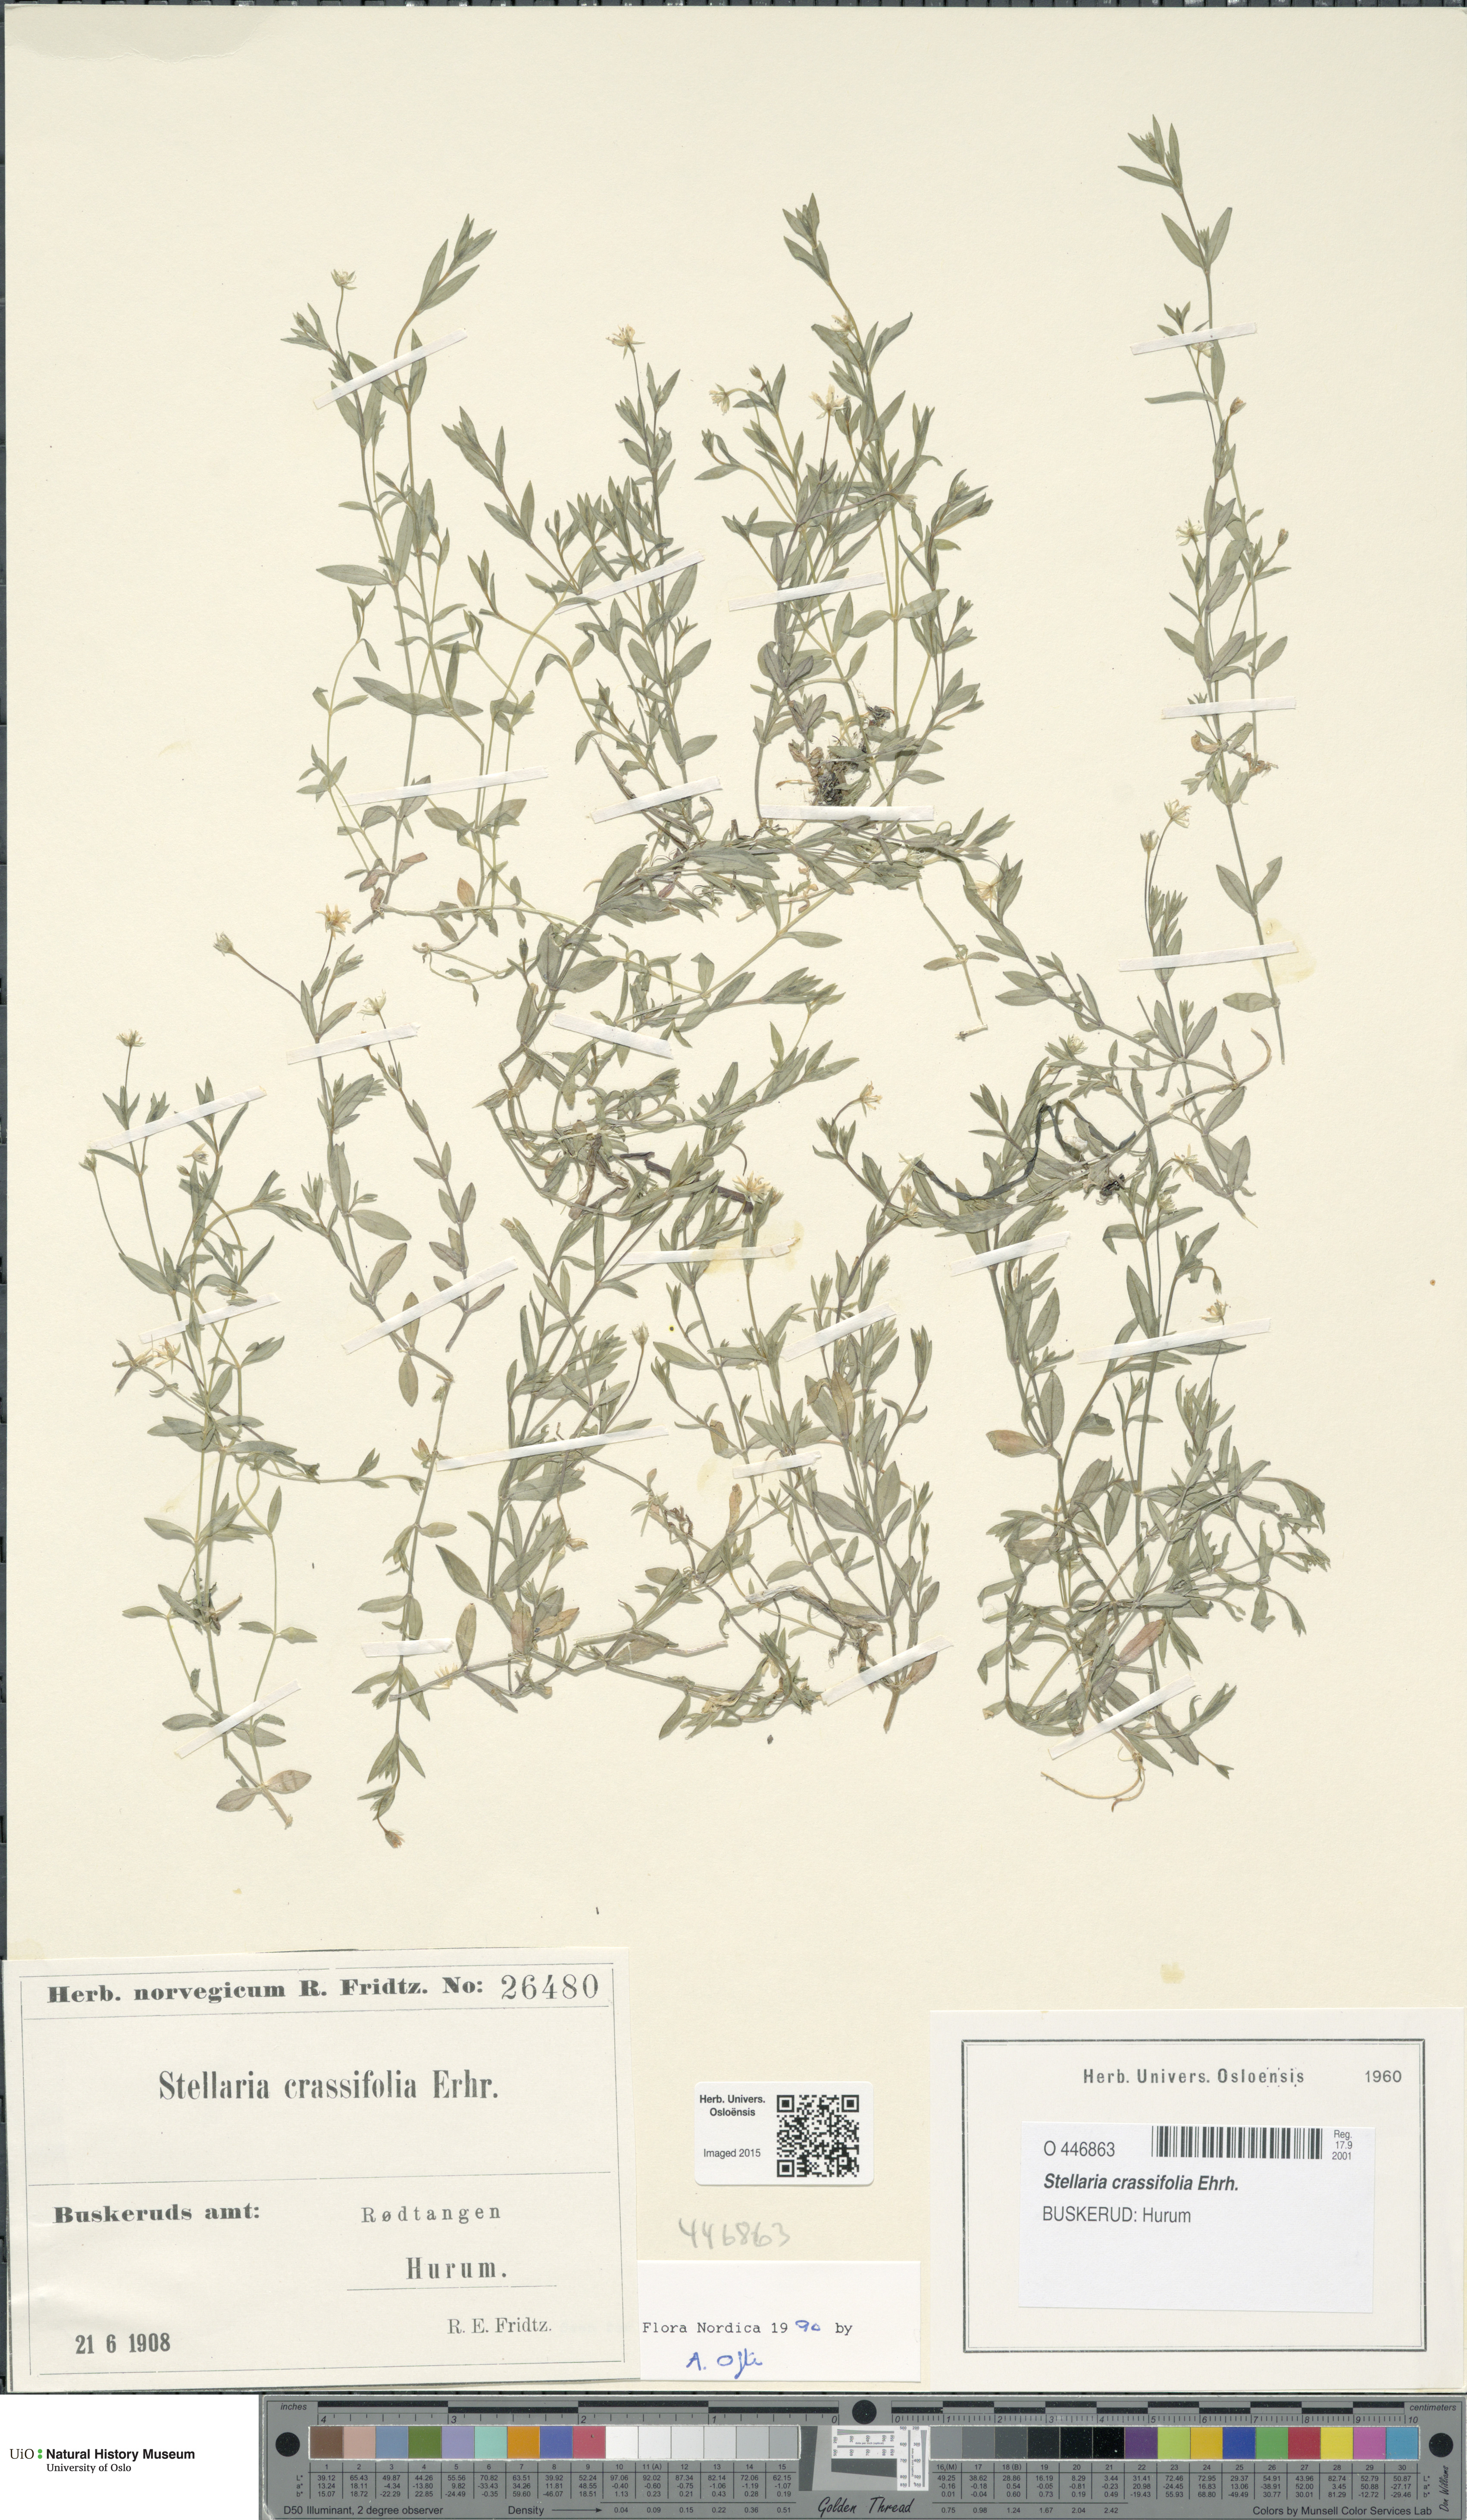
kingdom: Plantae
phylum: Tracheophyta
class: Magnoliopsida
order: Caryophyllales
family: Caryophyllaceae
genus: Stellaria
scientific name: Stellaria crassifolia
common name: Fleshy starwort
